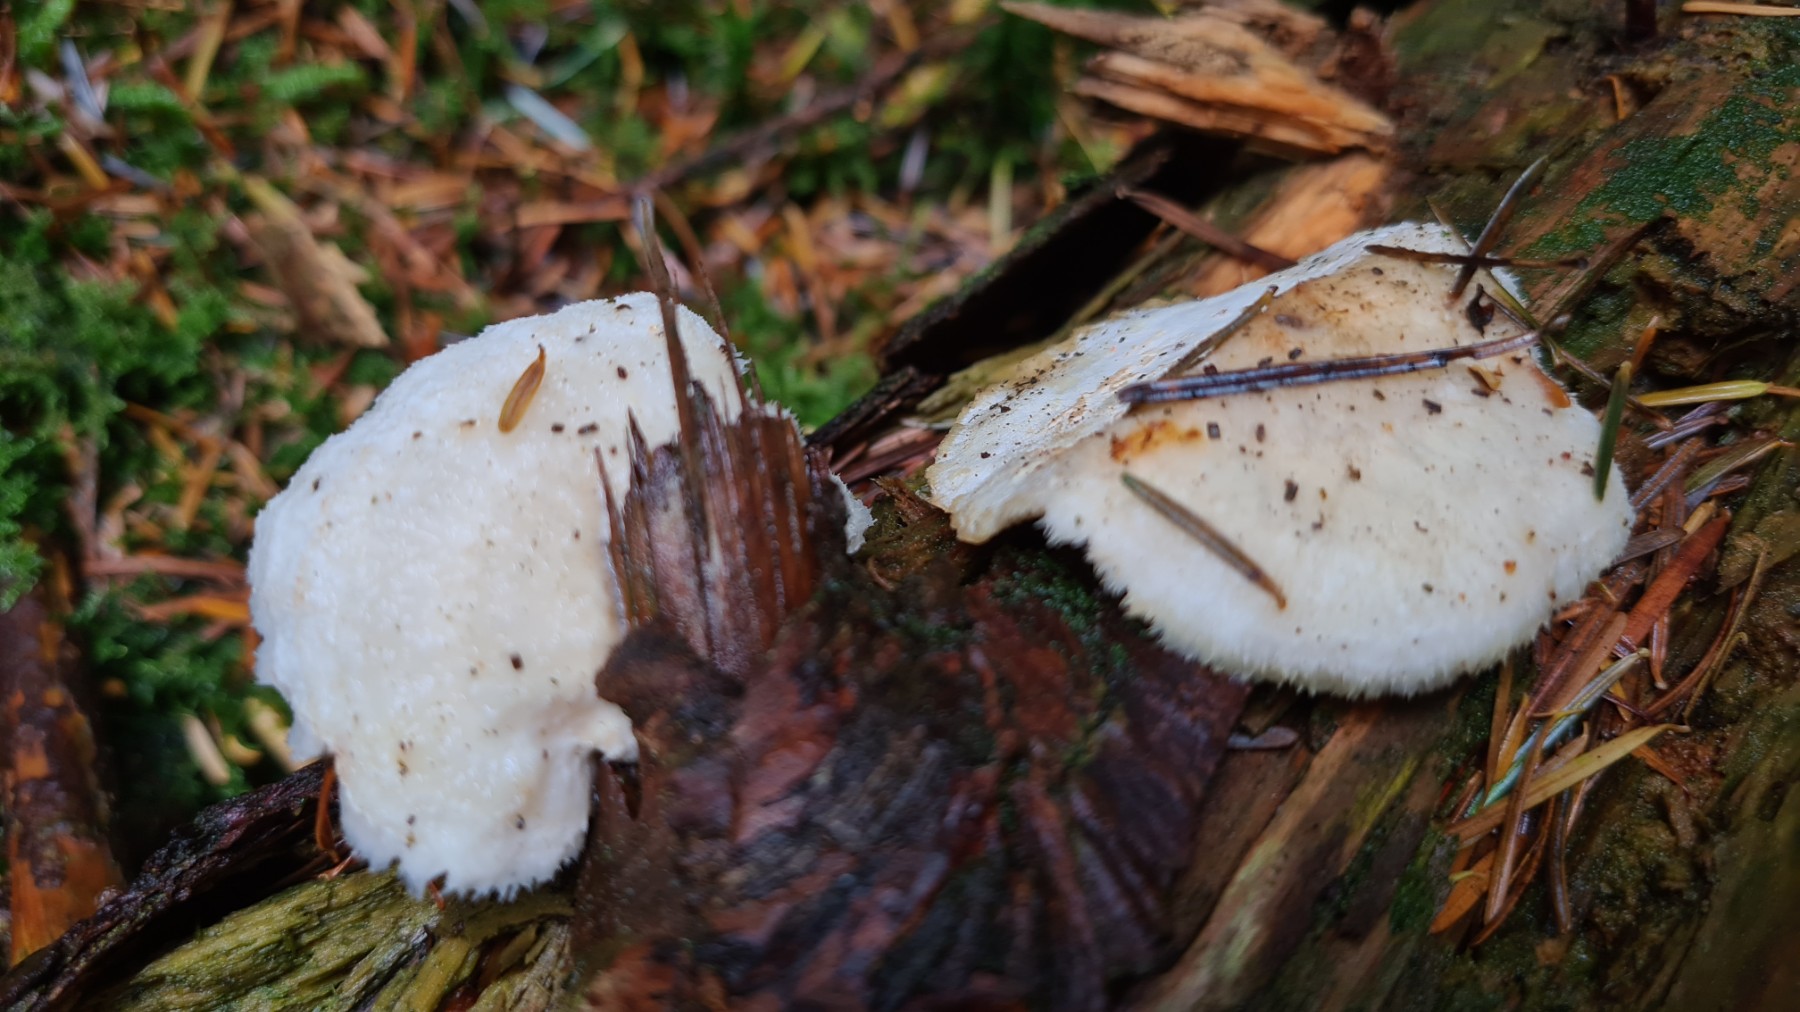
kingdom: Fungi
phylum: Basidiomycota
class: Agaricomycetes
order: Polyporales
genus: Fuscopostia
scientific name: Fuscopostia fragilis
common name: brunende kødporesvamp
